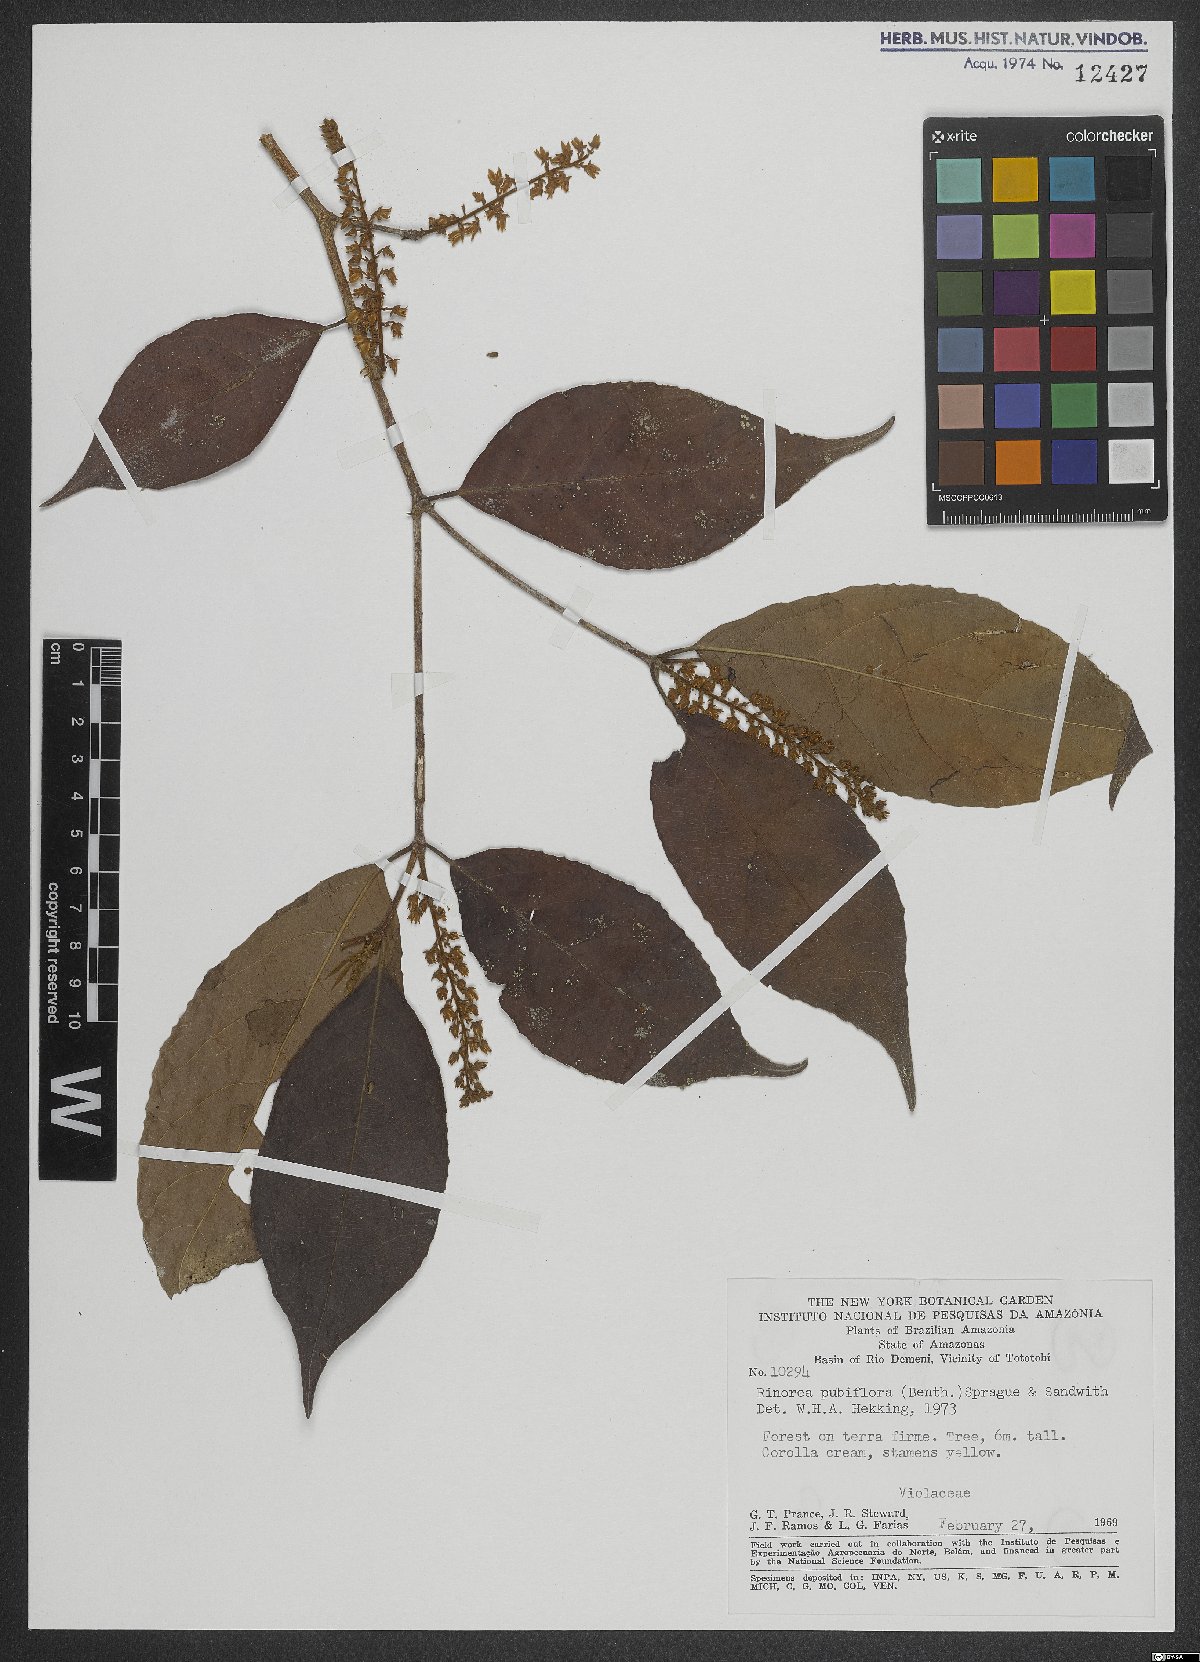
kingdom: Plantae
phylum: Tracheophyta
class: Magnoliopsida
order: Malpighiales
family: Violaceae
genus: Rinorea
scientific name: Rinorea pubiflora
